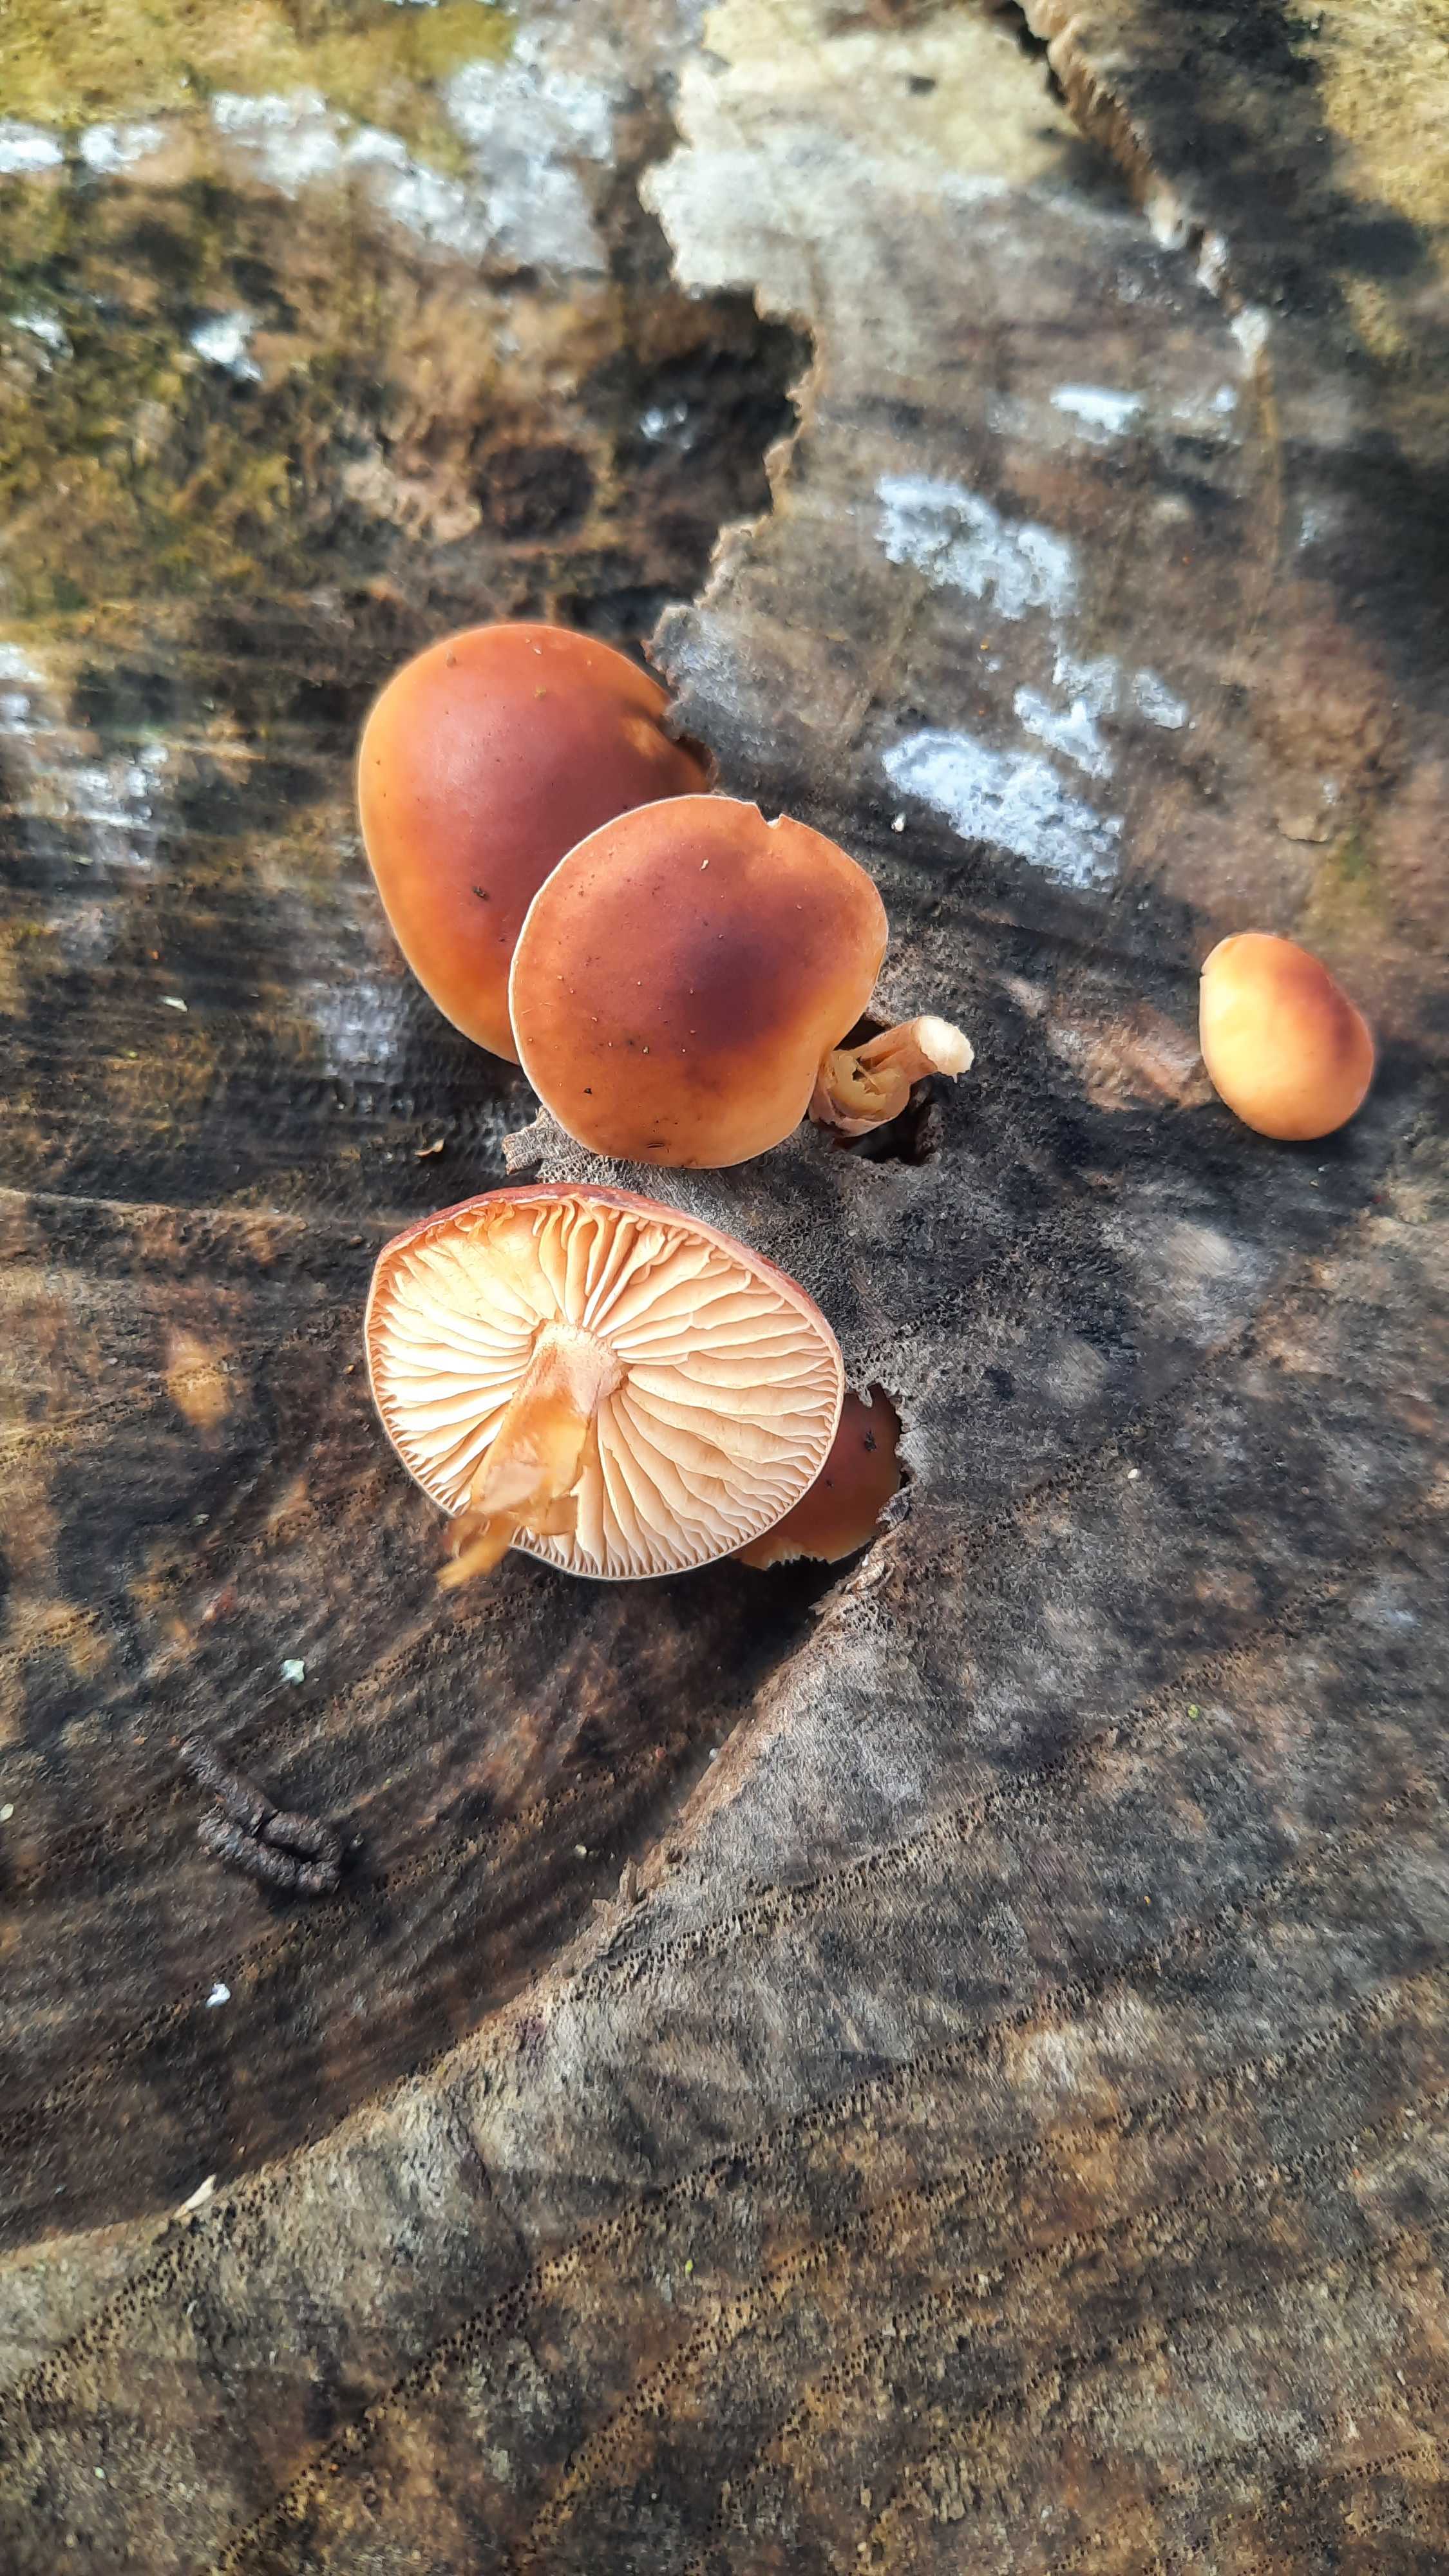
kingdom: Fungi
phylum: Basidiomycota
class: Agaricomycetes
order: Agaricales
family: Physalacriaceae
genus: Flammulina
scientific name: Flammulina
